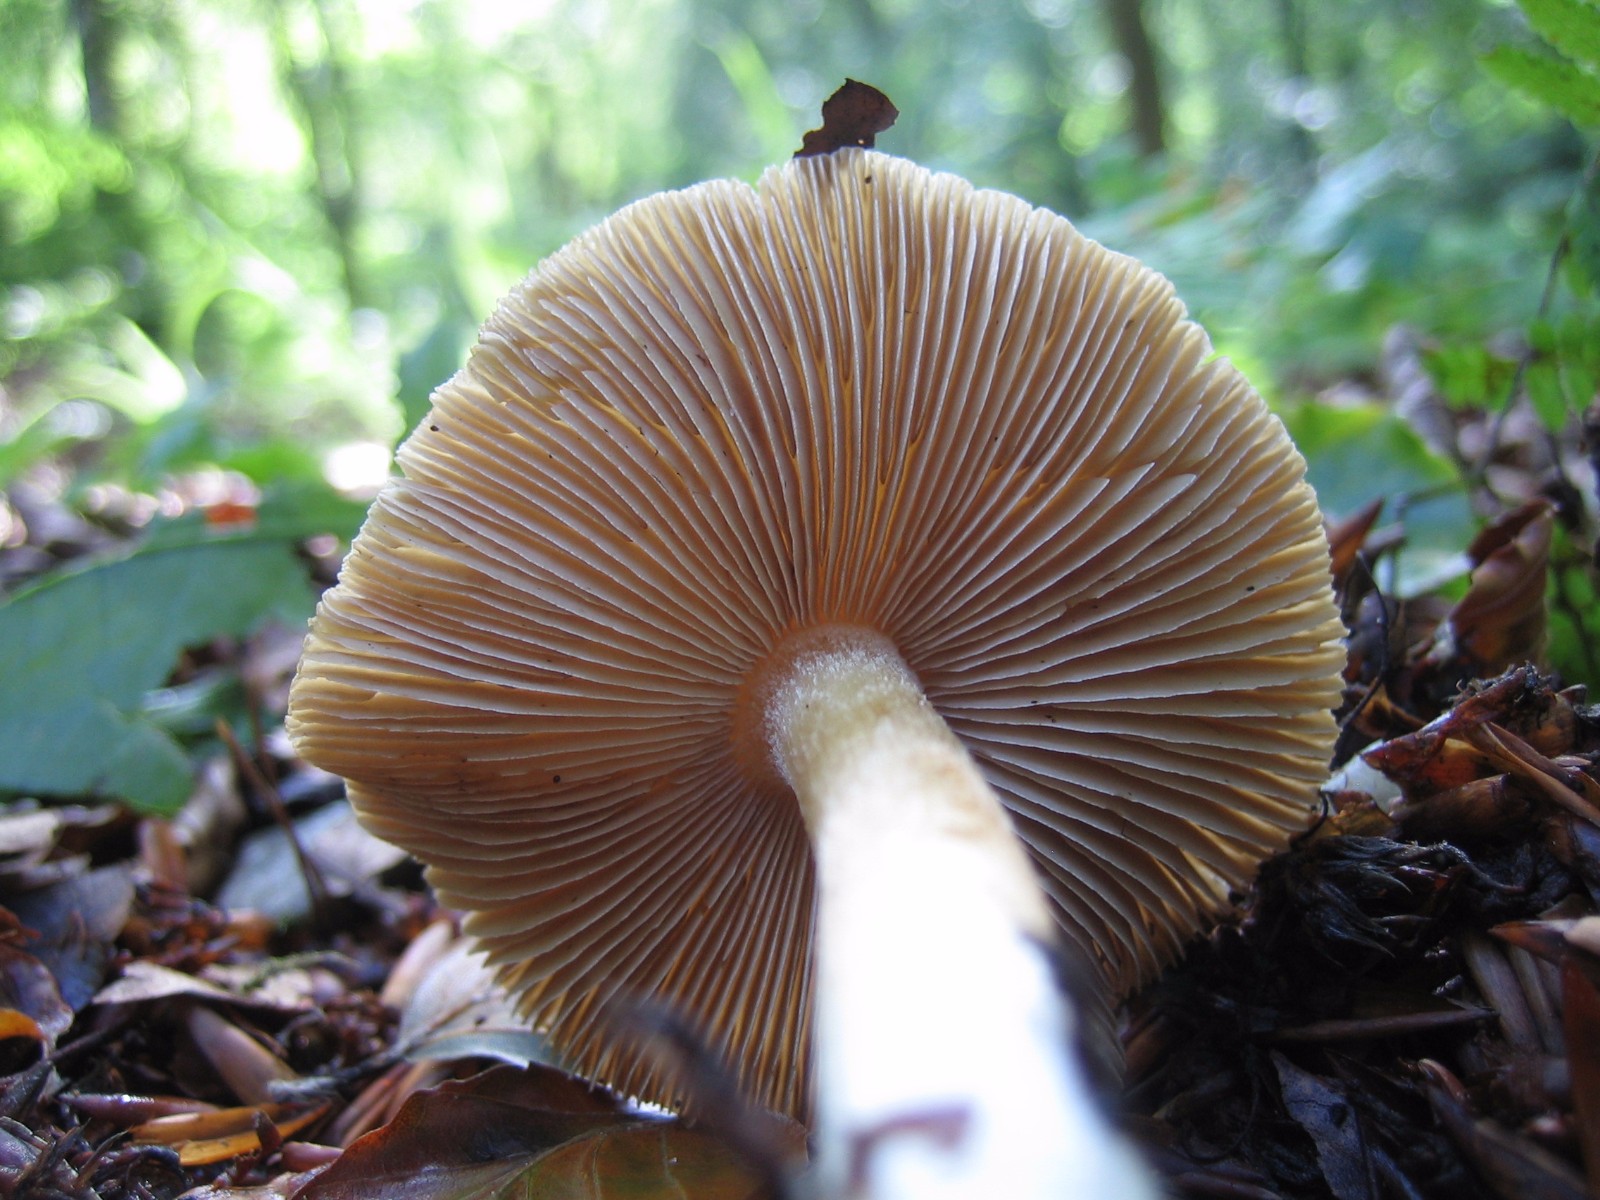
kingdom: Fungi
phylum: Basidiomycota
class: Agaricomycetes
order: Agaricales
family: Inocybaceae
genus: Inocybe
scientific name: Inocybe
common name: trævlhat
